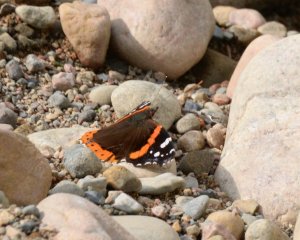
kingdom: Animalia
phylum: Arthropoda
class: Insecta
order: Lepidoptera
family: Nymphalidae
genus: Vanessa
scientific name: Vanessa atalanta
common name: Red Admiral
